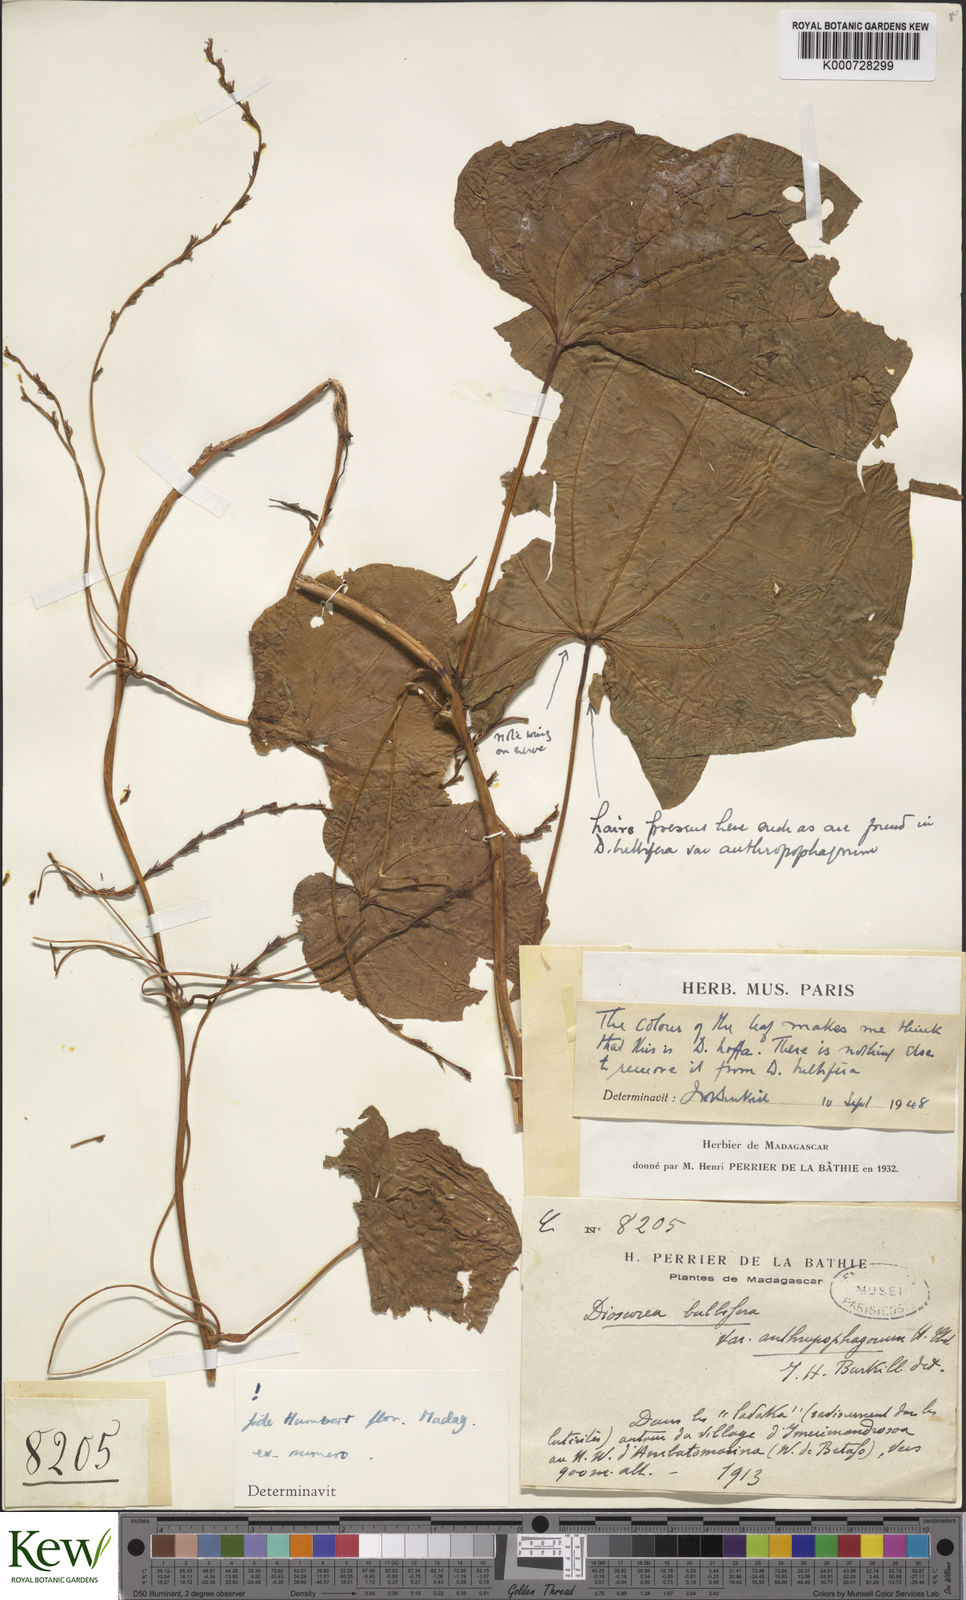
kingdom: Plantae
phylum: Tracheophyta
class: Liliopsida
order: Dioscoreales
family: Dioscoreaceae
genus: Dioscorea
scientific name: Dioscorea bulbifera
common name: Air yam
